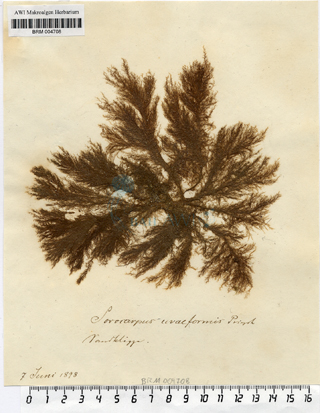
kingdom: Chromista
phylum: Ochrophyta
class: Phaeophyceae
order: Ectocarpales
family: Chordariaceae
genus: Botrytella
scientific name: Botrytella micromora
